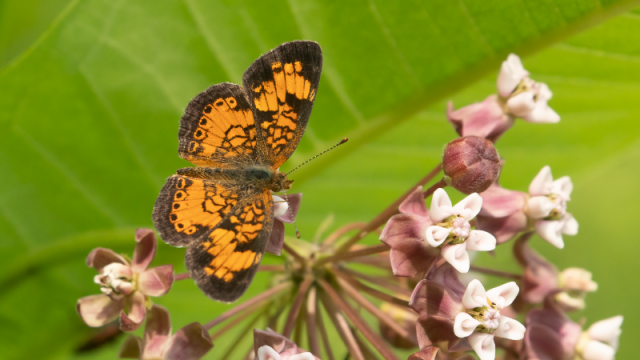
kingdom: Animalia
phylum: Arthropoda
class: Insecta
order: Lepidoptera
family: Nymphalidae
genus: Phyciodes
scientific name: Phyciodes tharos
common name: Northern Crescent
